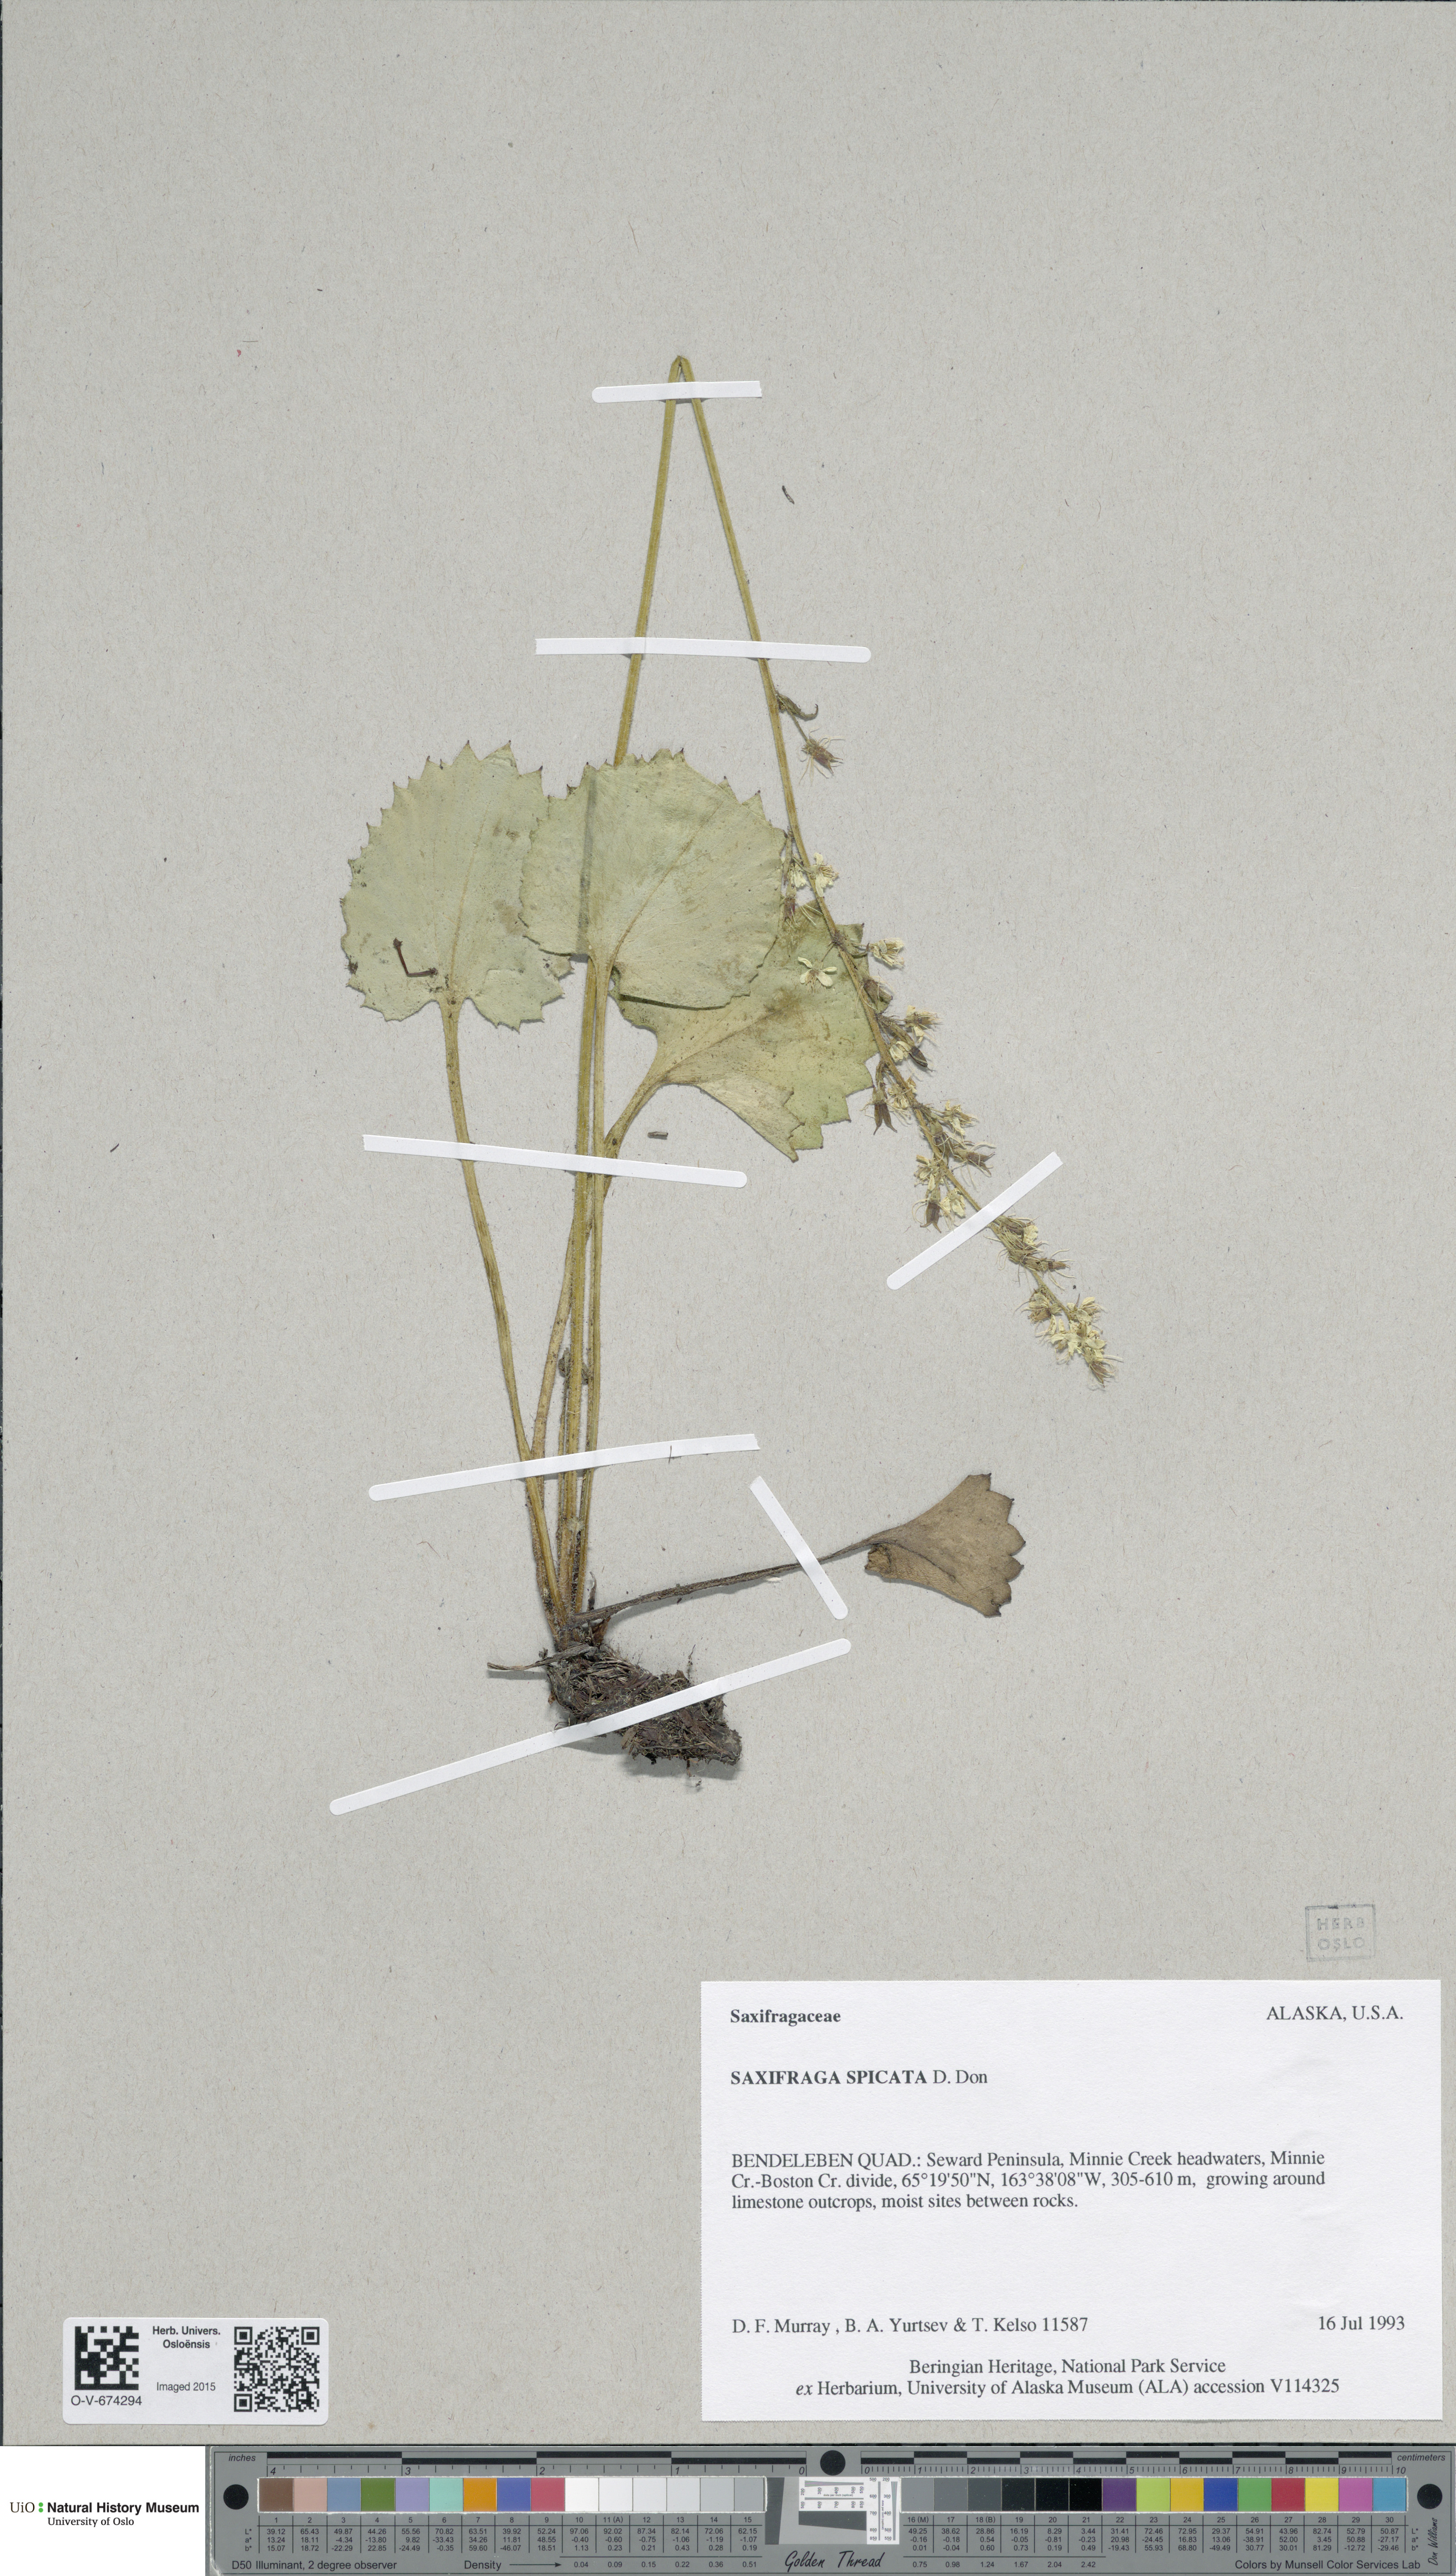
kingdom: Plantae
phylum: Tracheophyta
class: Magnoliopsida
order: Saxifragales
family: Saxifragaceae
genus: Micranthes
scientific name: Micranthes spicata
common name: Spiked saxifrage
